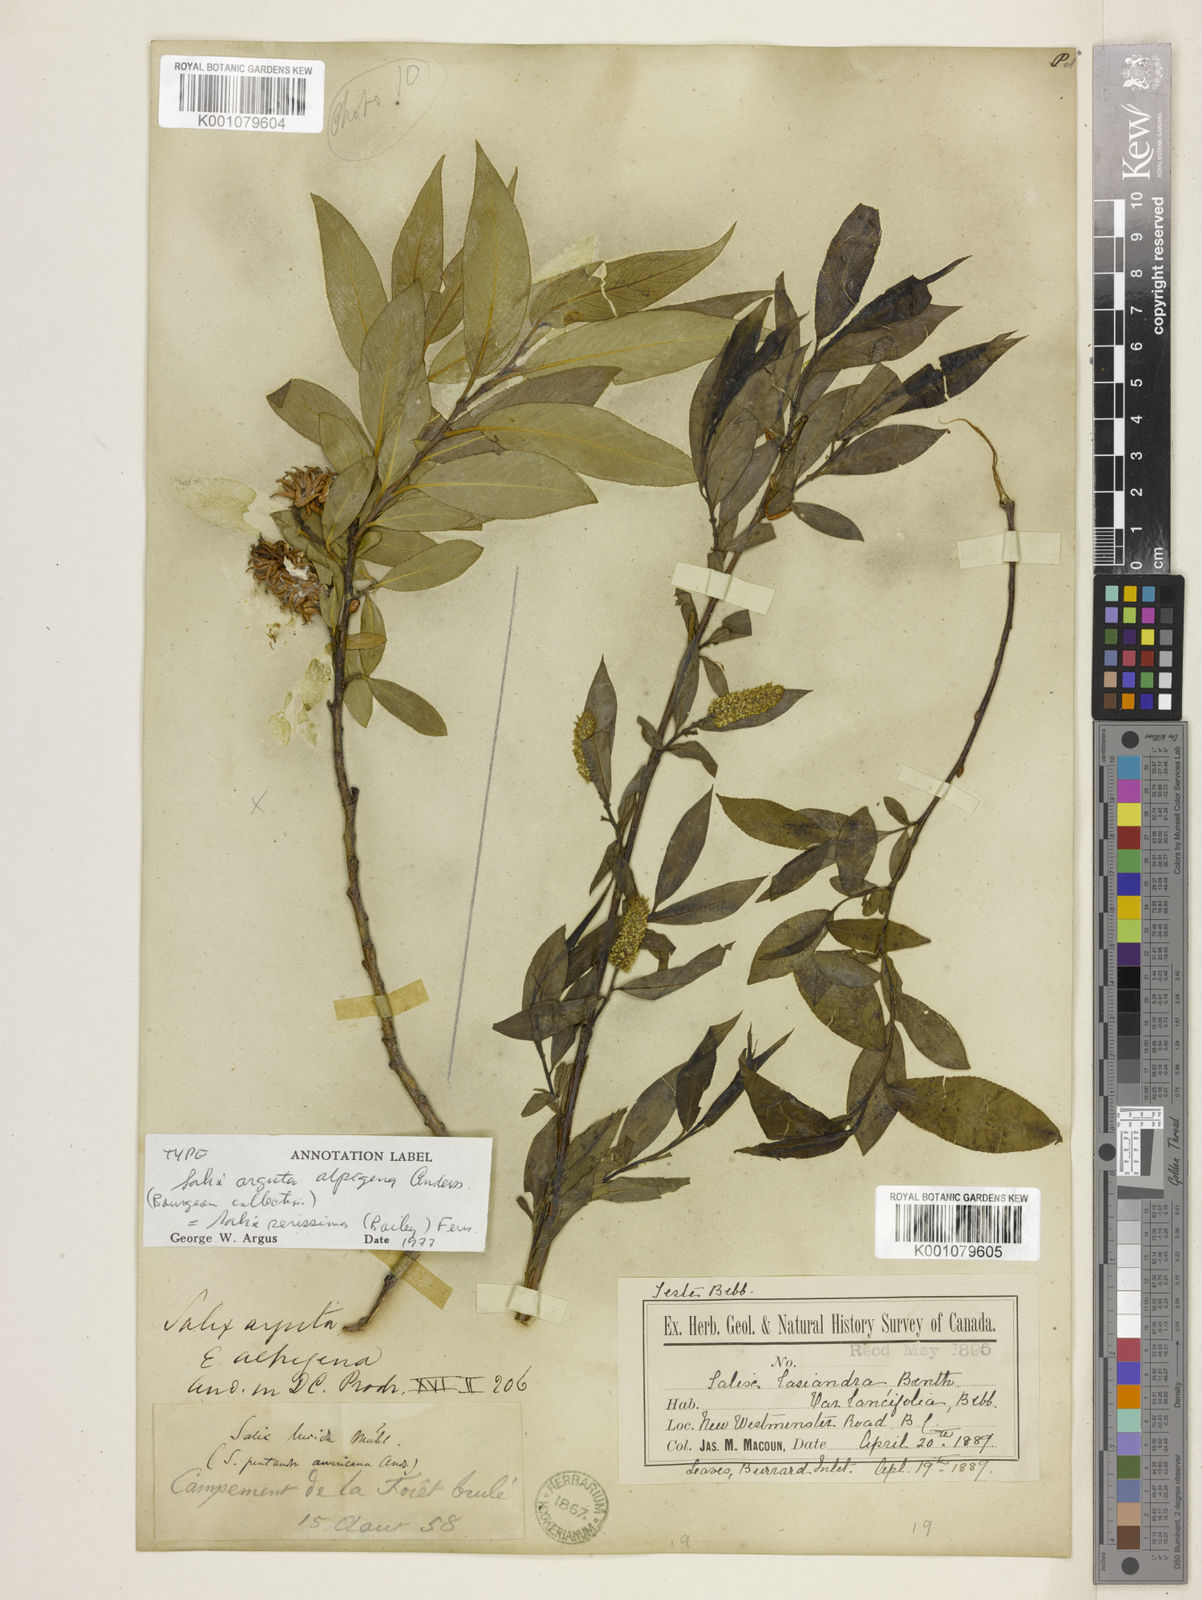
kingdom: Plantae
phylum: Tracheophyta
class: Magnoliopsida
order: Malpighiales
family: Salicaceae
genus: Salix
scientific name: Salix serissima
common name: Autumn willow
